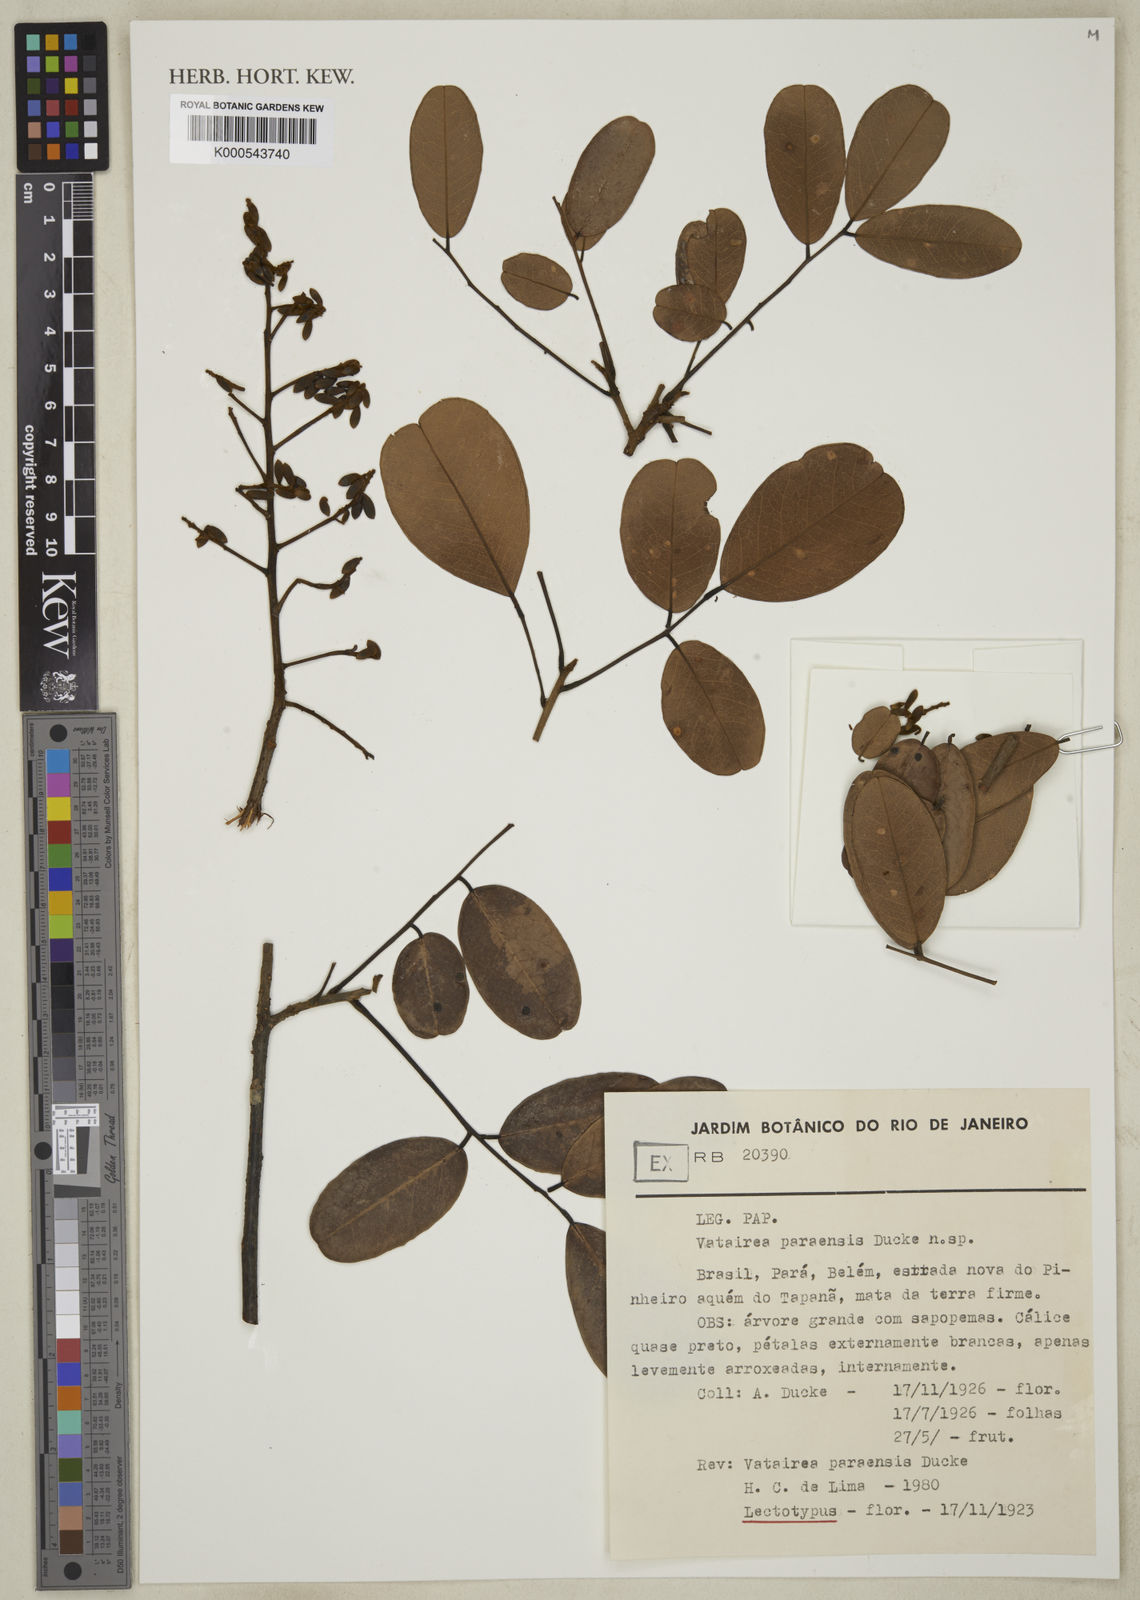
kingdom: Plantae
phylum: Tracheophyta
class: Magnoliopsida
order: Fabales
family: Fabaceae
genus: Vatairea
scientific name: Vatairea paraensis
